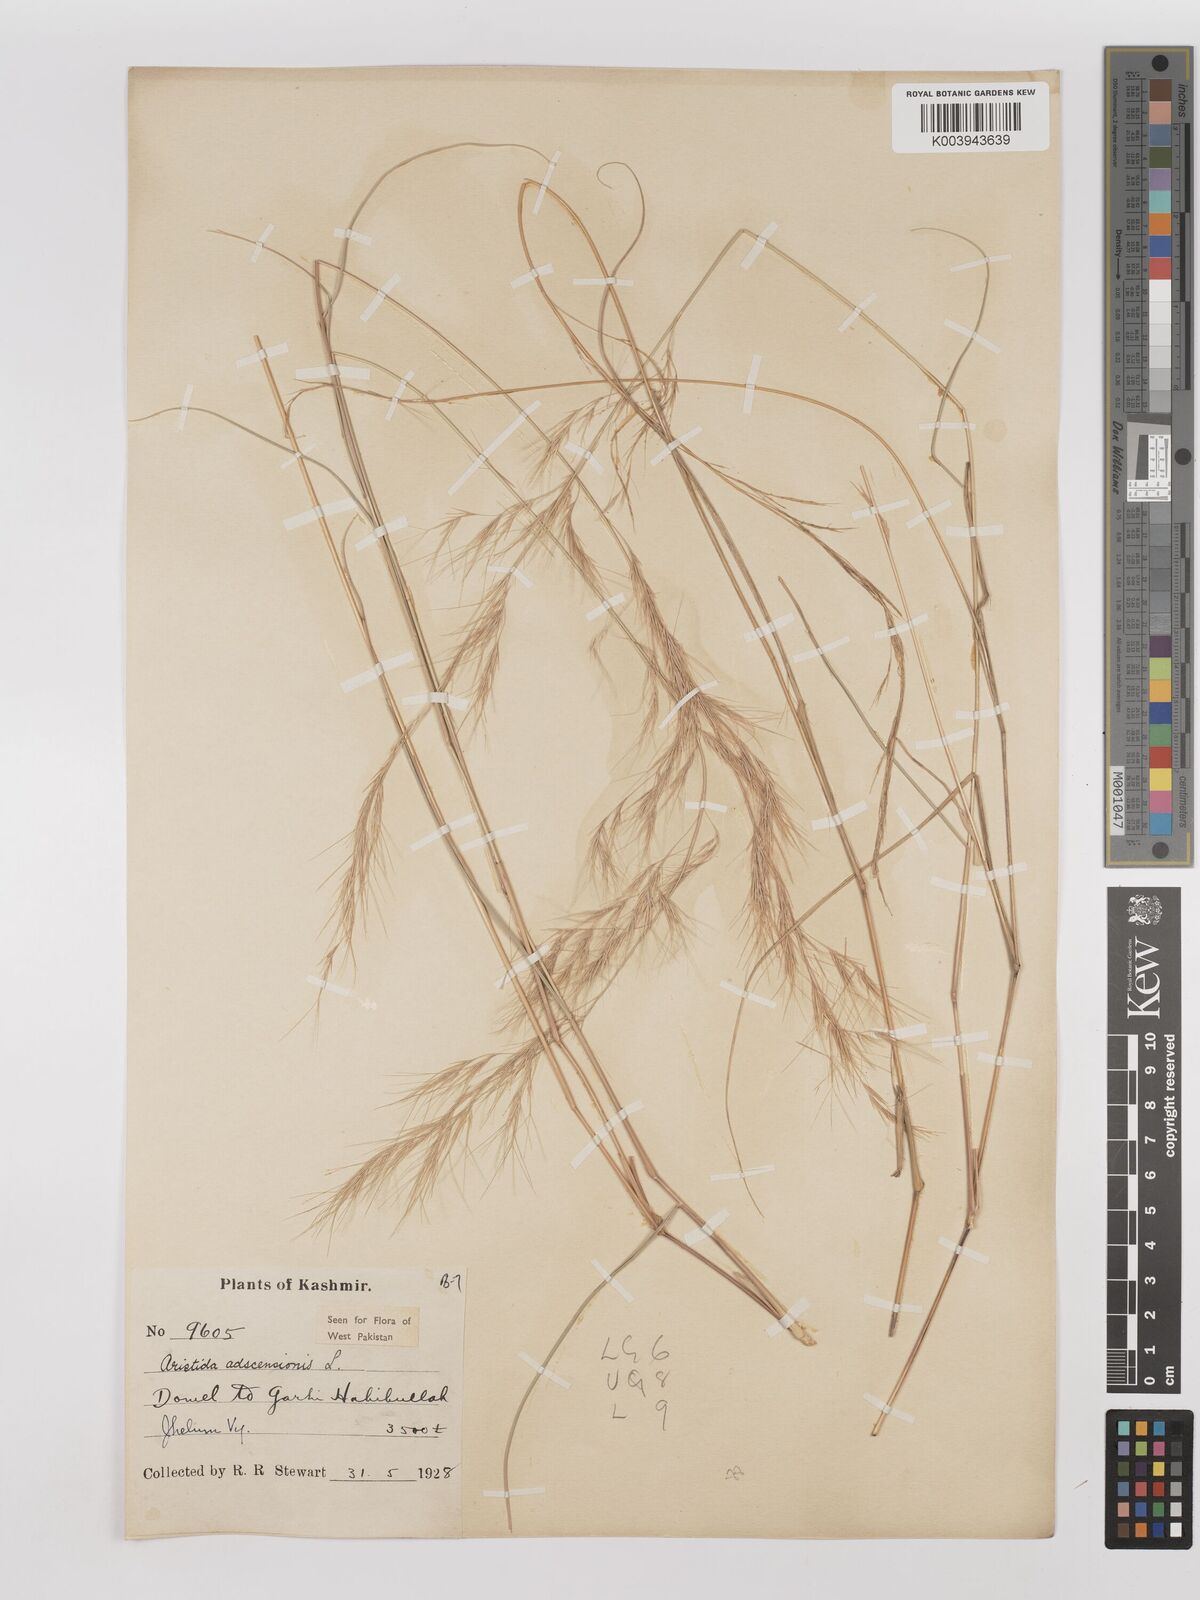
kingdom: Plantae
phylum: Tracheophyta
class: Liliopsida
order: Poales
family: Poaceae
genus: Aristida
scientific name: Aristida adscensionis
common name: Sixweeks threeawn
